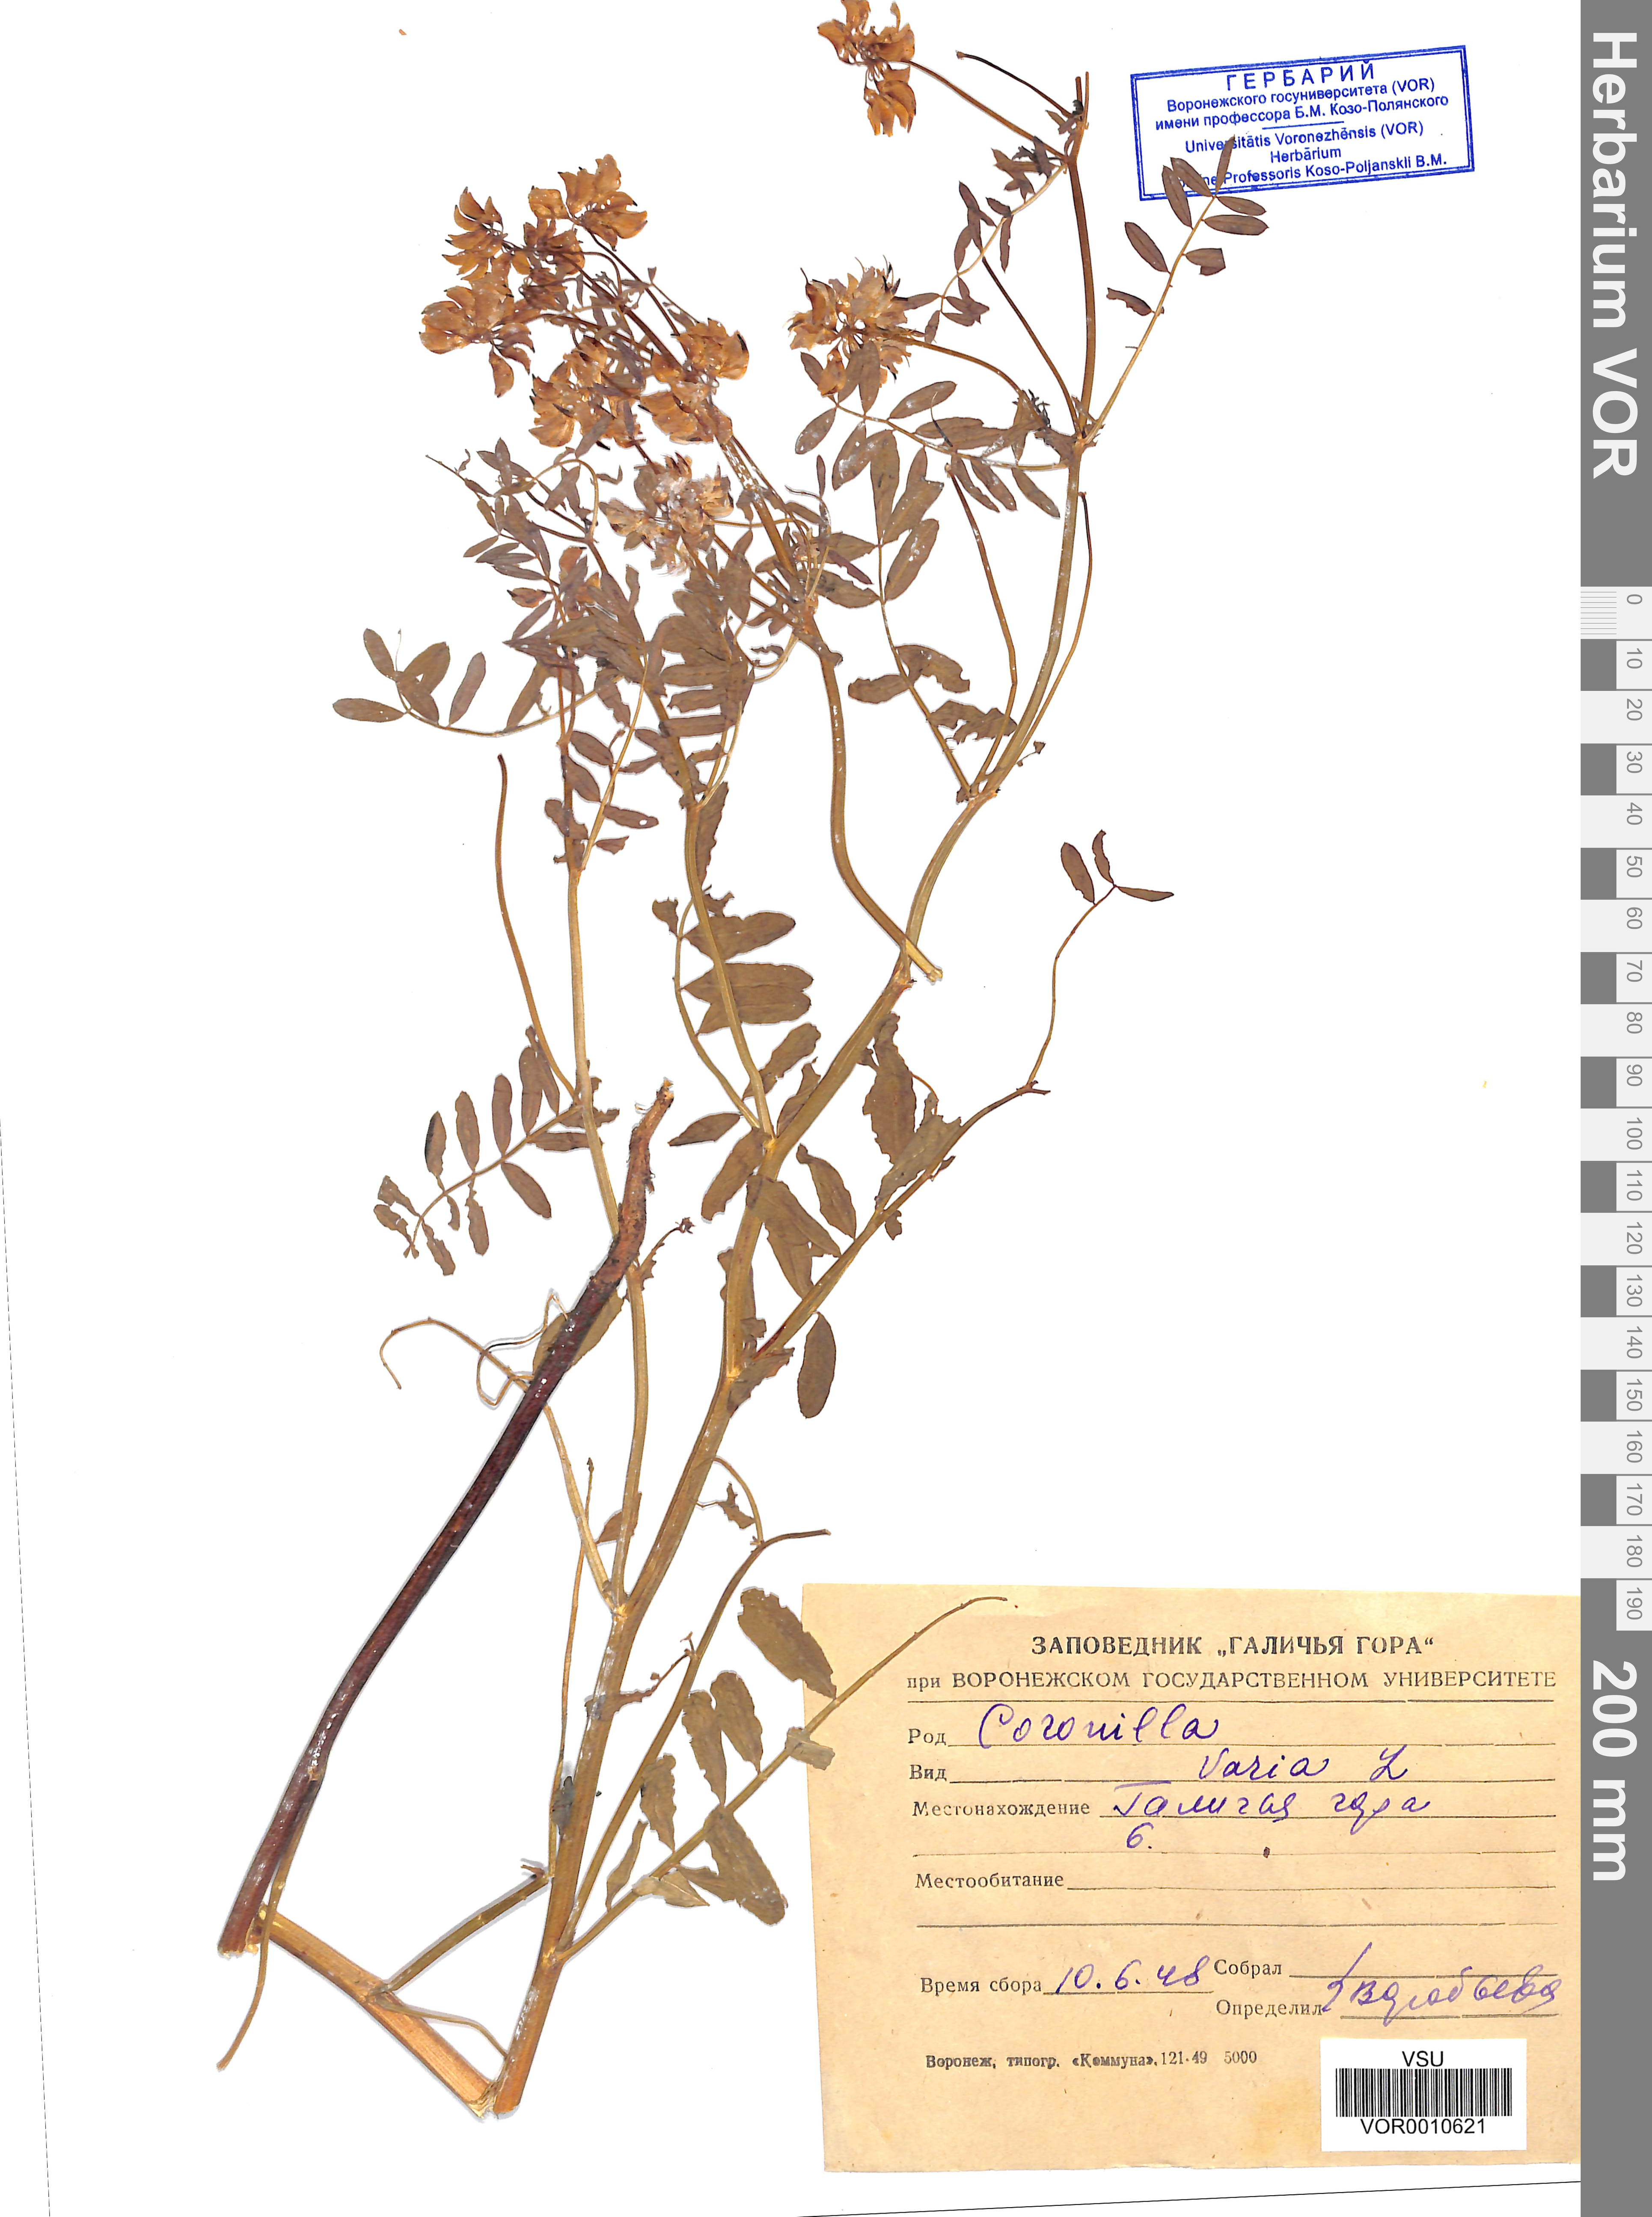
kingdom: Plantae
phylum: Tracheophyta
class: Magnoliopsida
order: Fabales
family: Fabaceae
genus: Coronilla
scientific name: Coronilla varia
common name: Crownvetch
